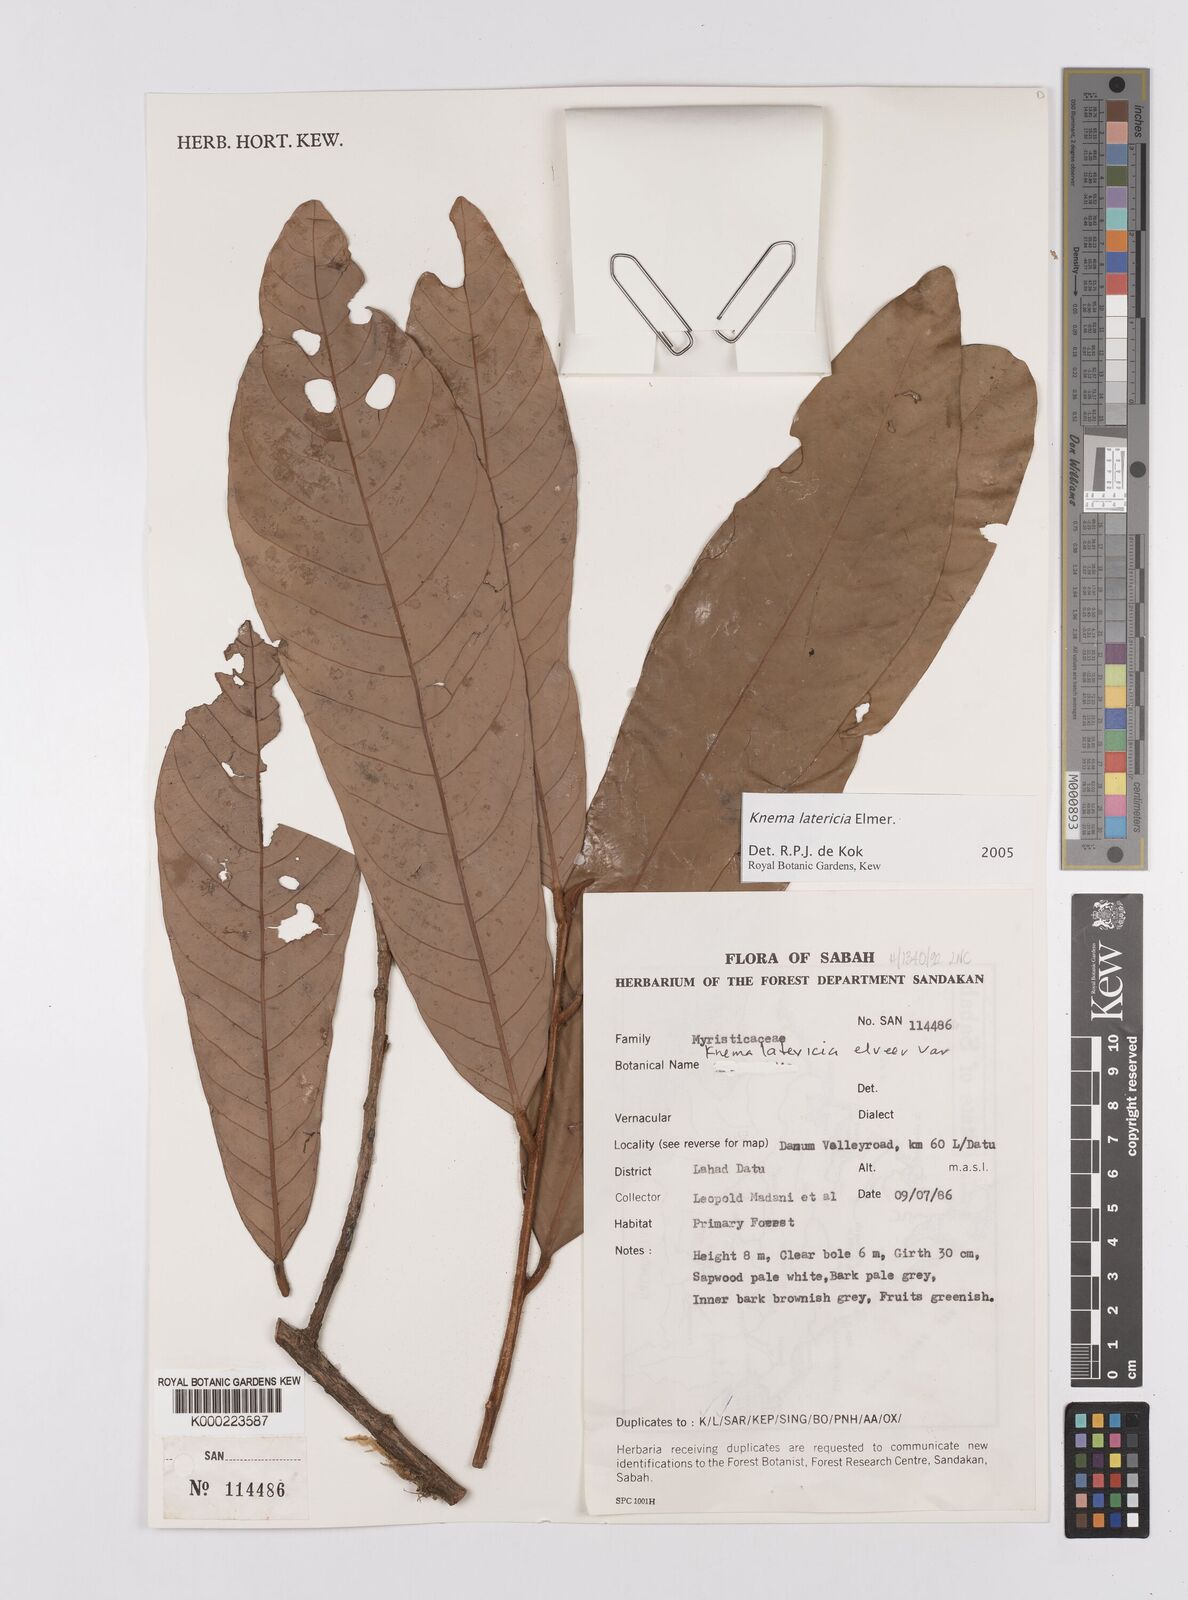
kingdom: Plantae
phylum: Tracheophyta
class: Magnoliopsida
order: Magnoliales
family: Myristicaceae
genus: Knema
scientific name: Knema latericia
